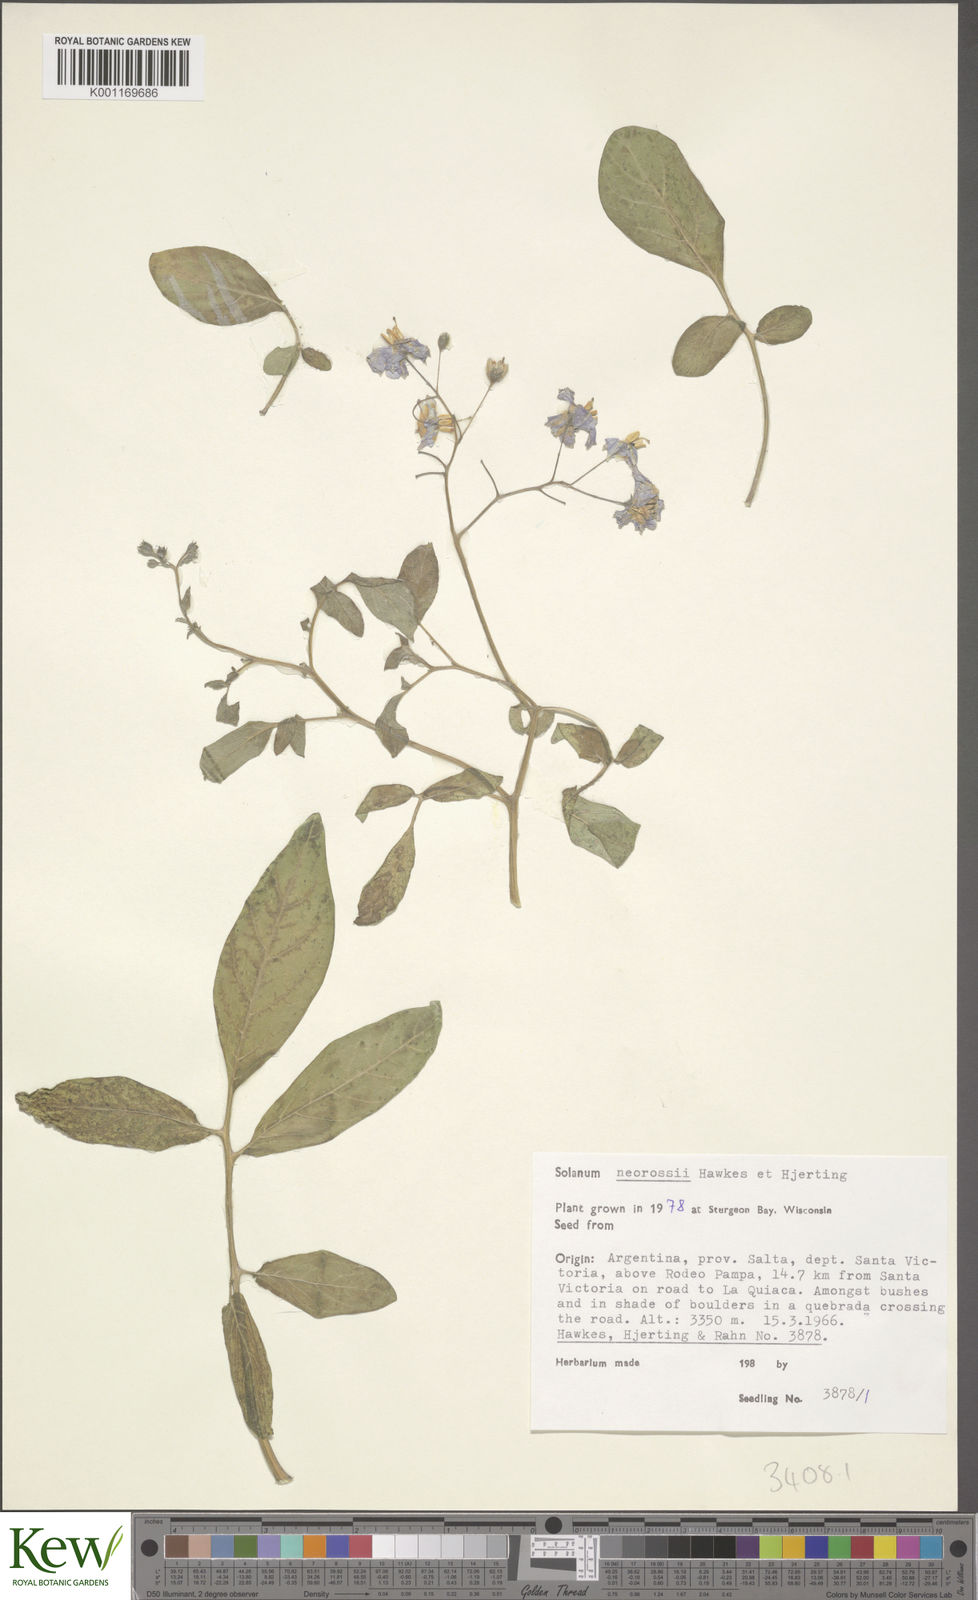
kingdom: Plantae
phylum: Tracheophyta
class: Magnoliopsida
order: Solanales
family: Solanaceae
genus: Solanum
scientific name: Solanum neorossii
